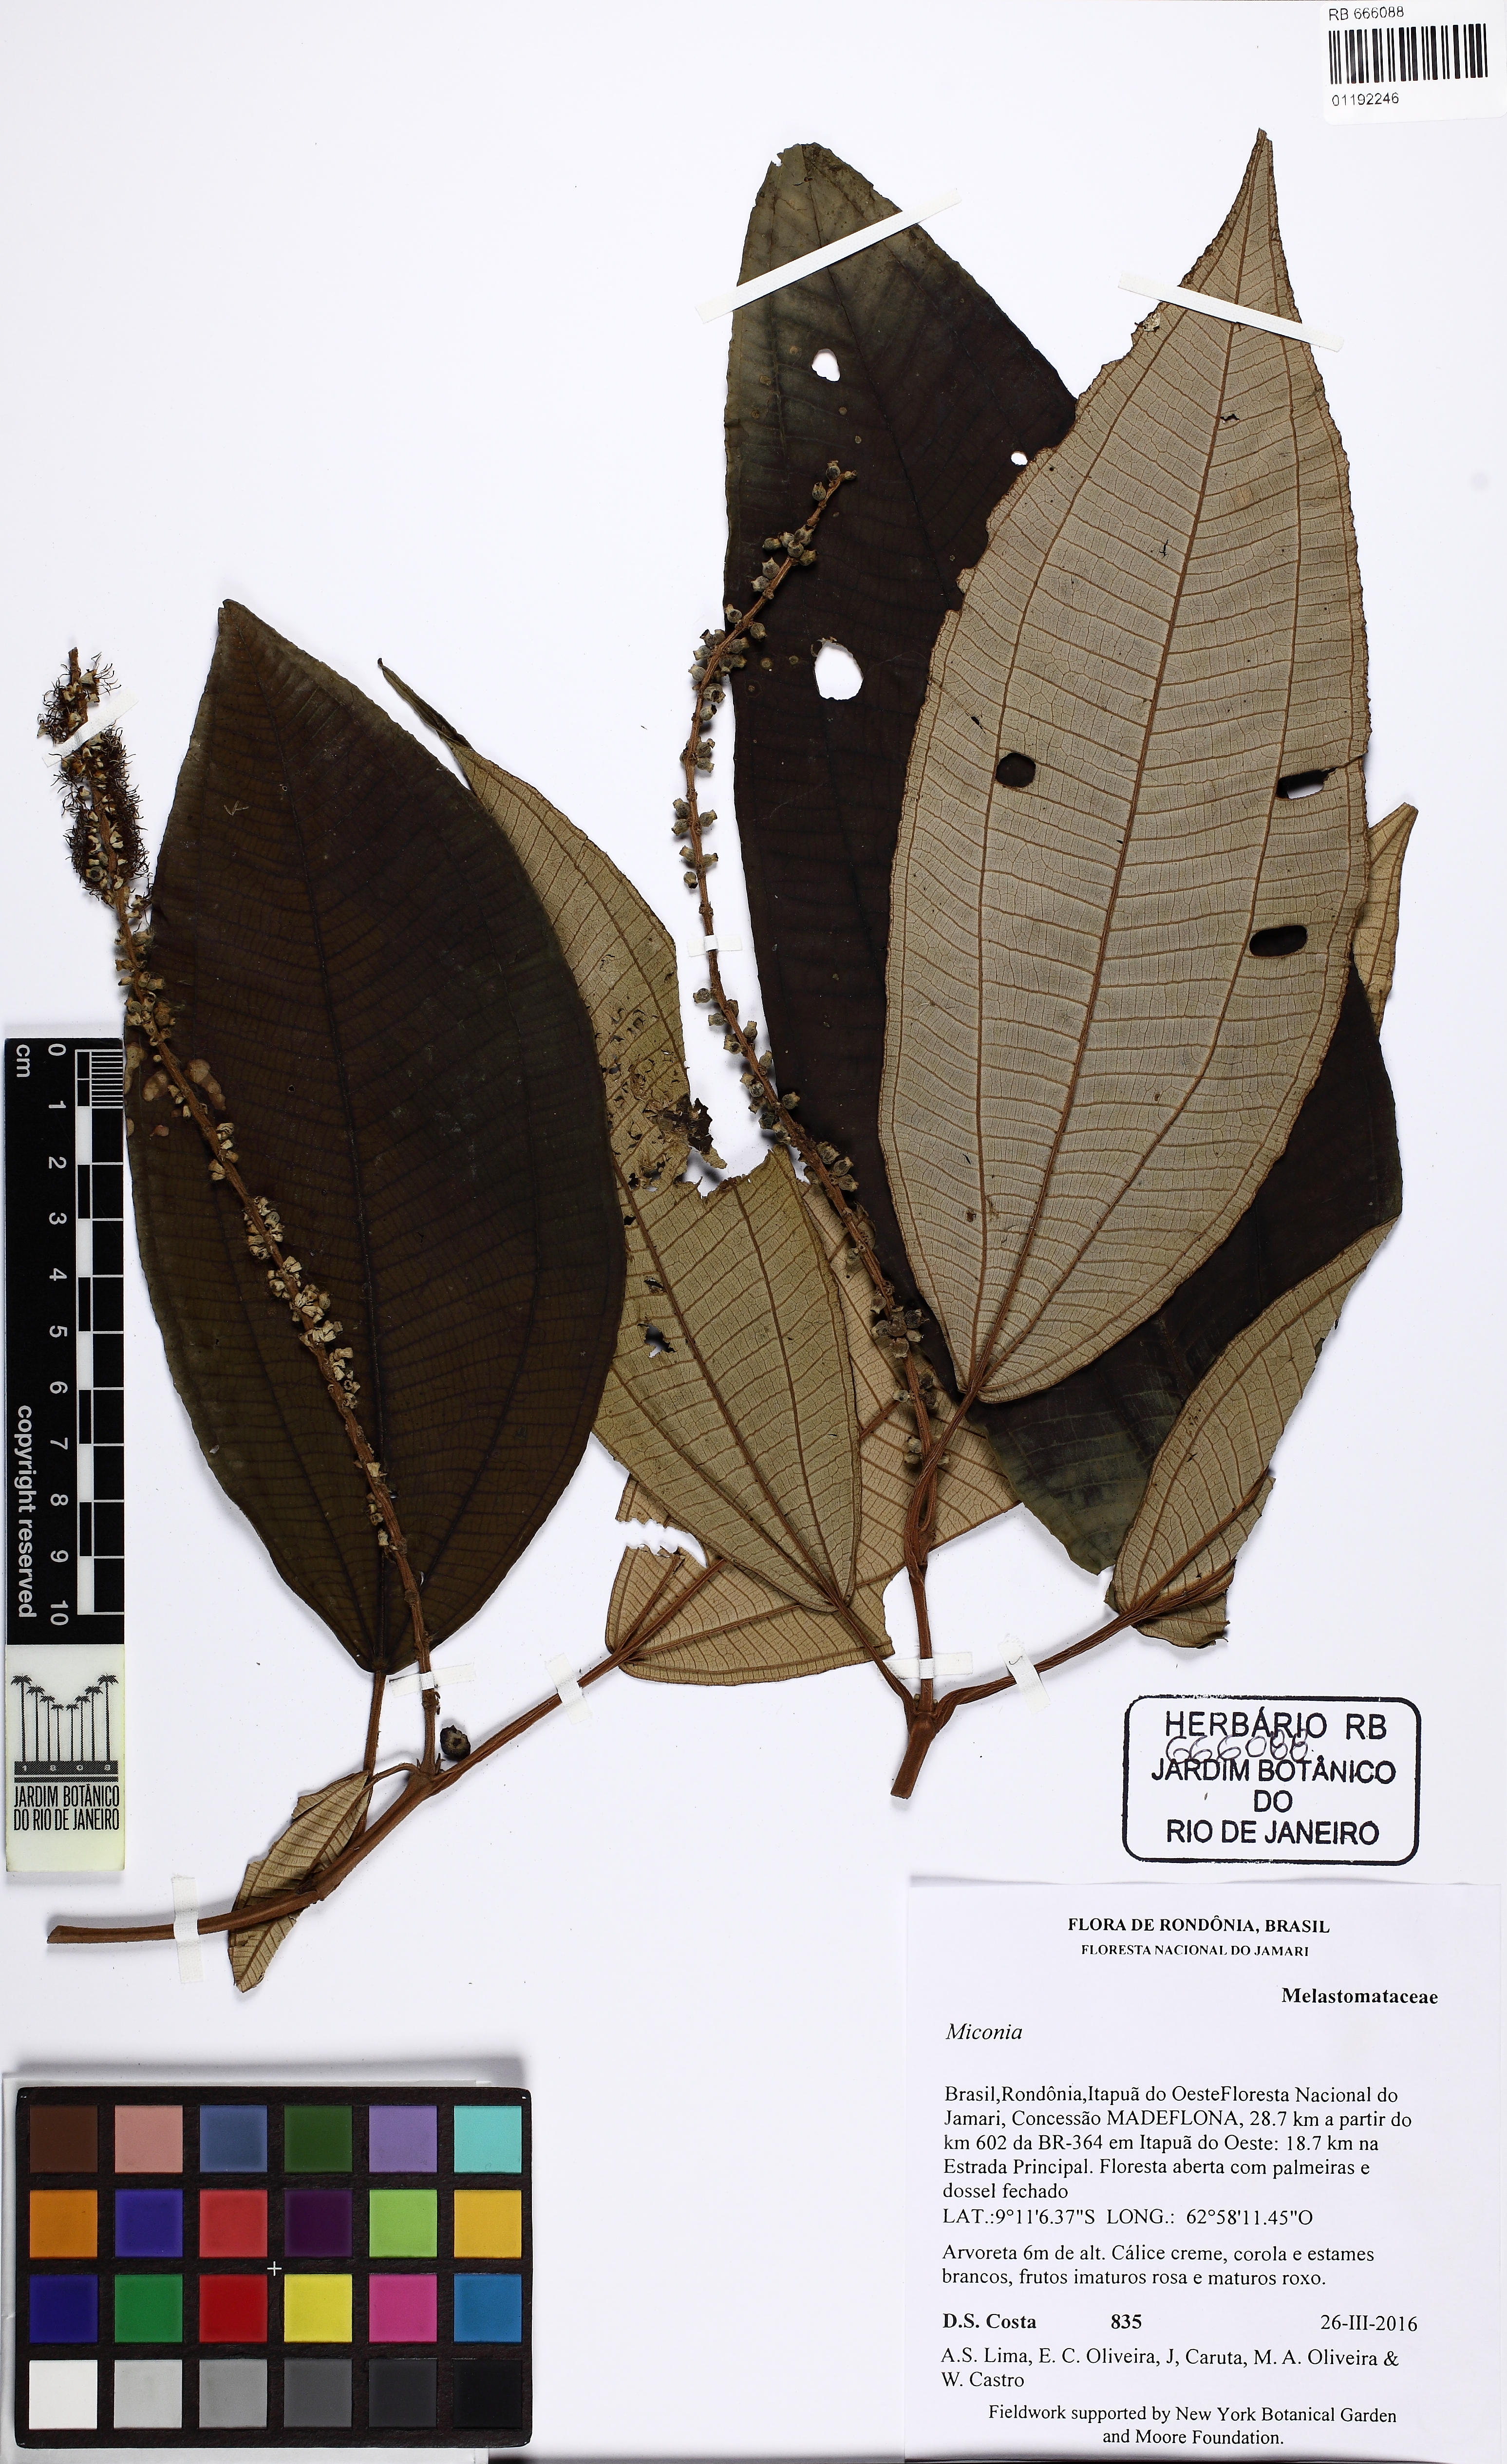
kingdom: Plantae
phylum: Tracheophyta
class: Magnoliopsida
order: Myrtales
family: Melastomataceae
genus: Miconia
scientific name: Miconia longispicata
